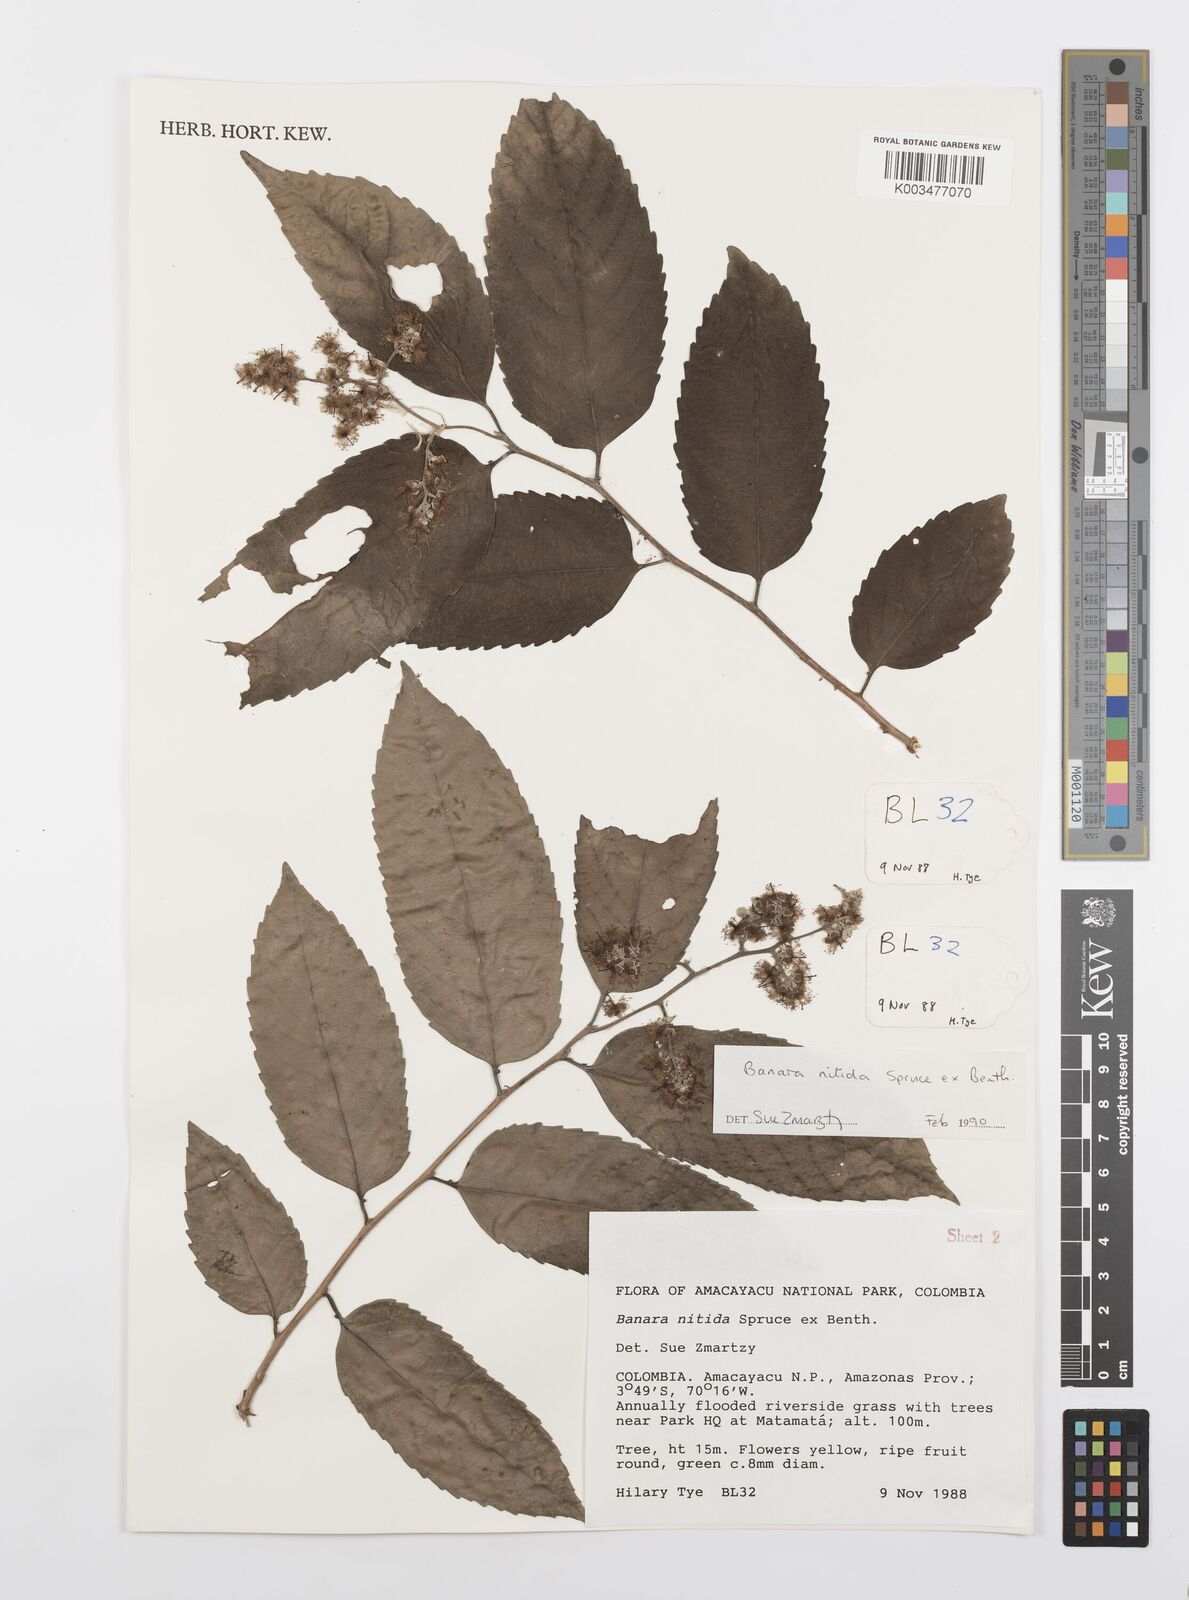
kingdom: Plantae
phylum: Tracheophyta
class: Magnoliopsida
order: Malpighiales
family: Salicaceae
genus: Banara
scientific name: Banara nitida
